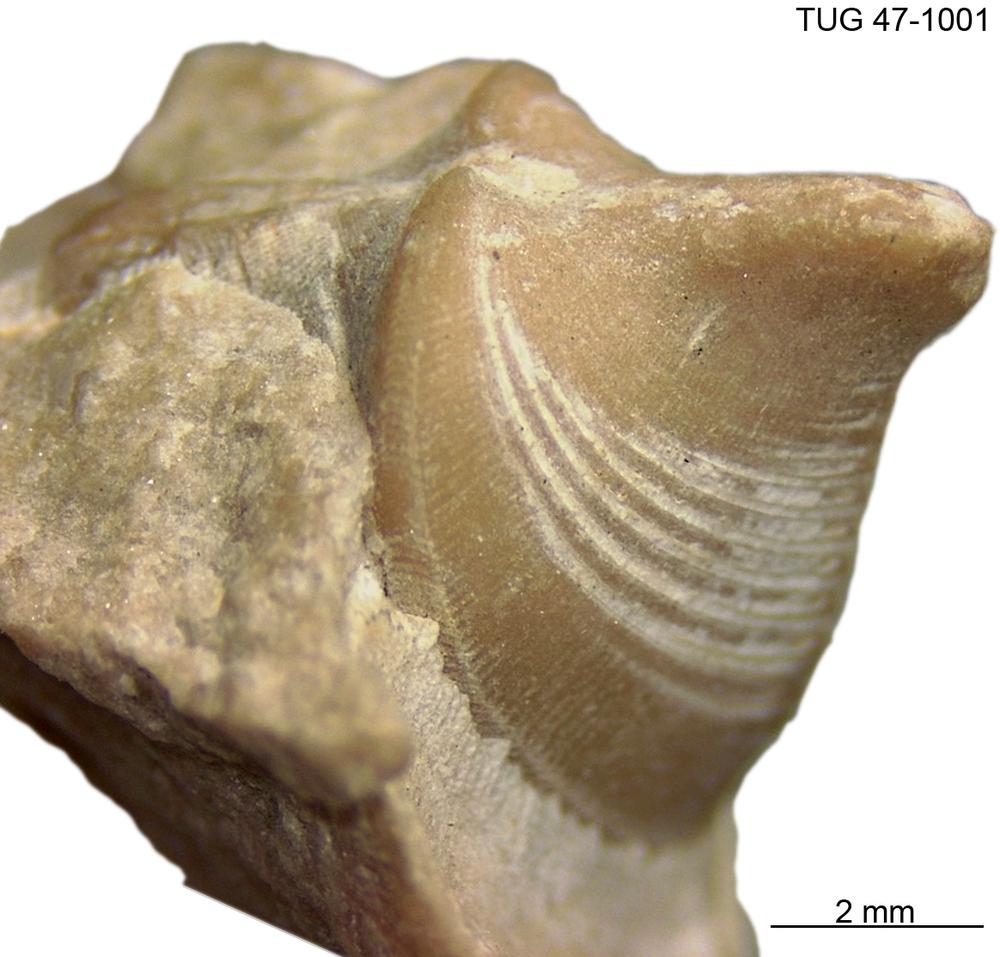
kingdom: Animalia
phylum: Mollusca
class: Rostroconchia
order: Conocardiida
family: Hippocardiidae
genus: Hippocardia
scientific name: Hippocardia
